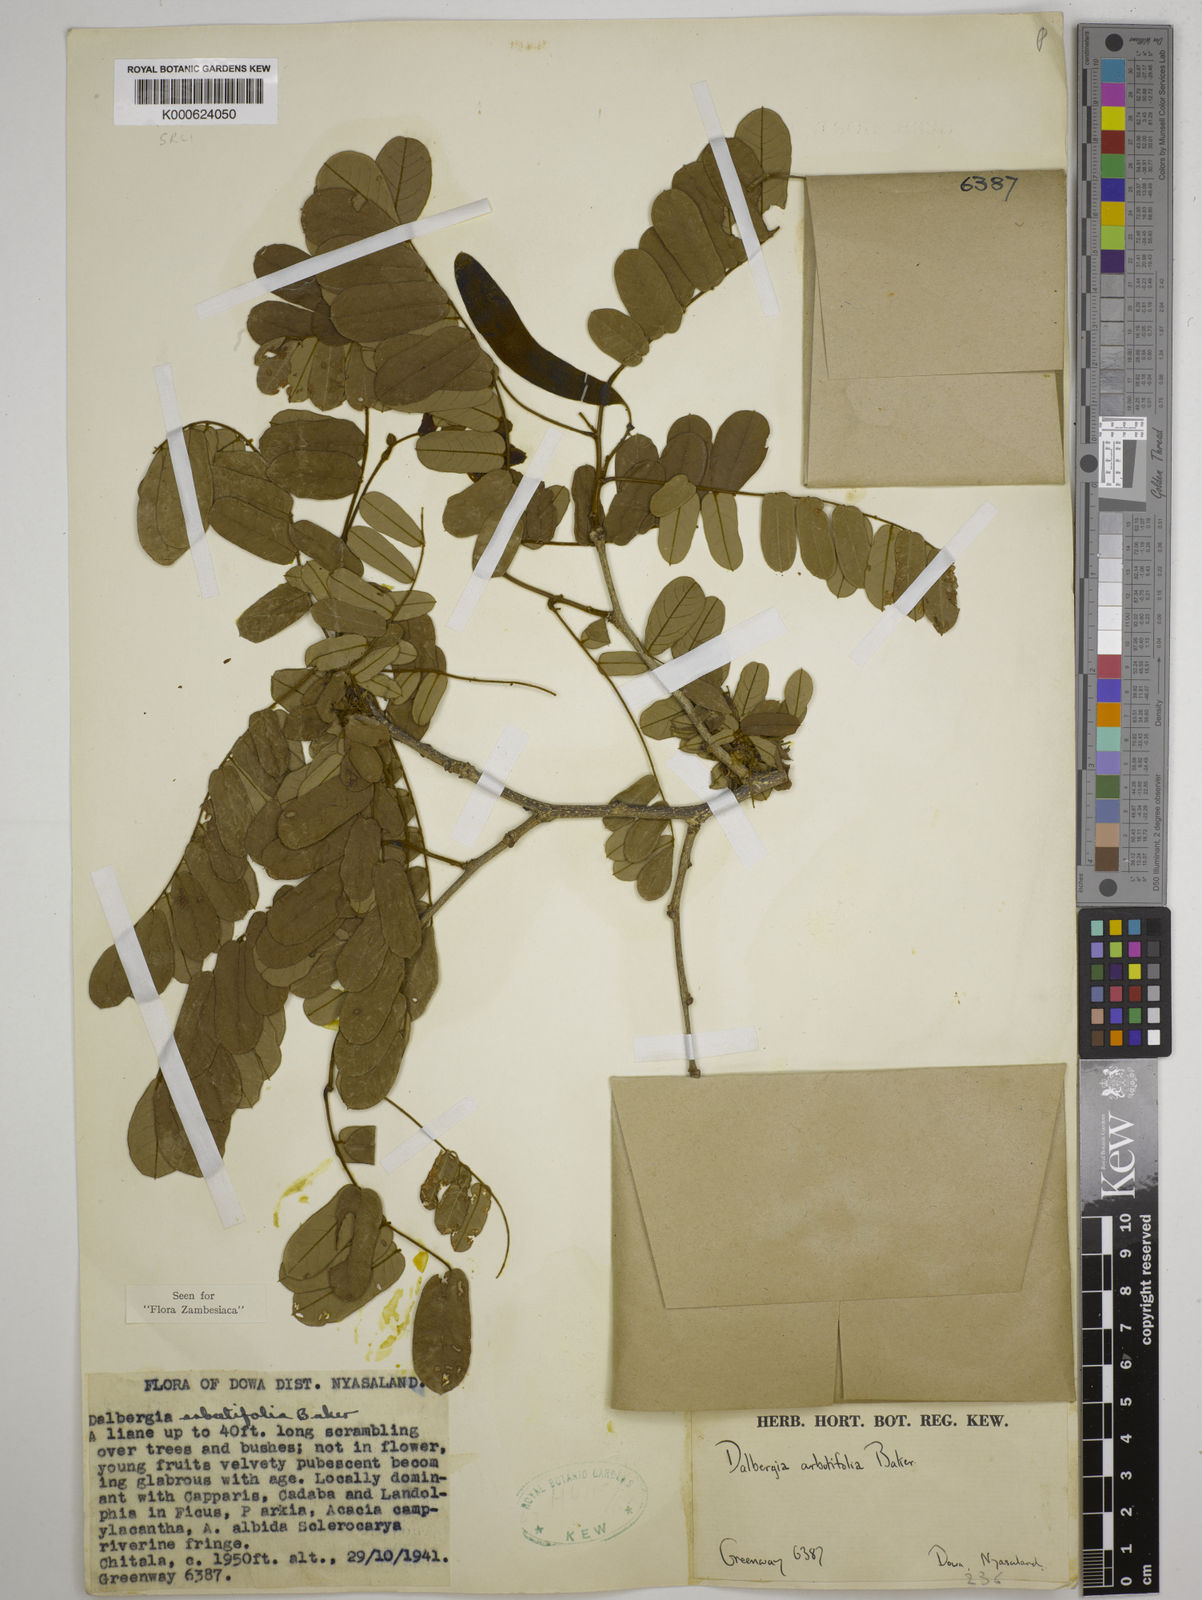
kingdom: Plantae
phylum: Tracheophyta
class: Magnoliopsida
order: Fabales
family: Fabaceae
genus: Dalbergia
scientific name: Dalbergia arbutifolia
